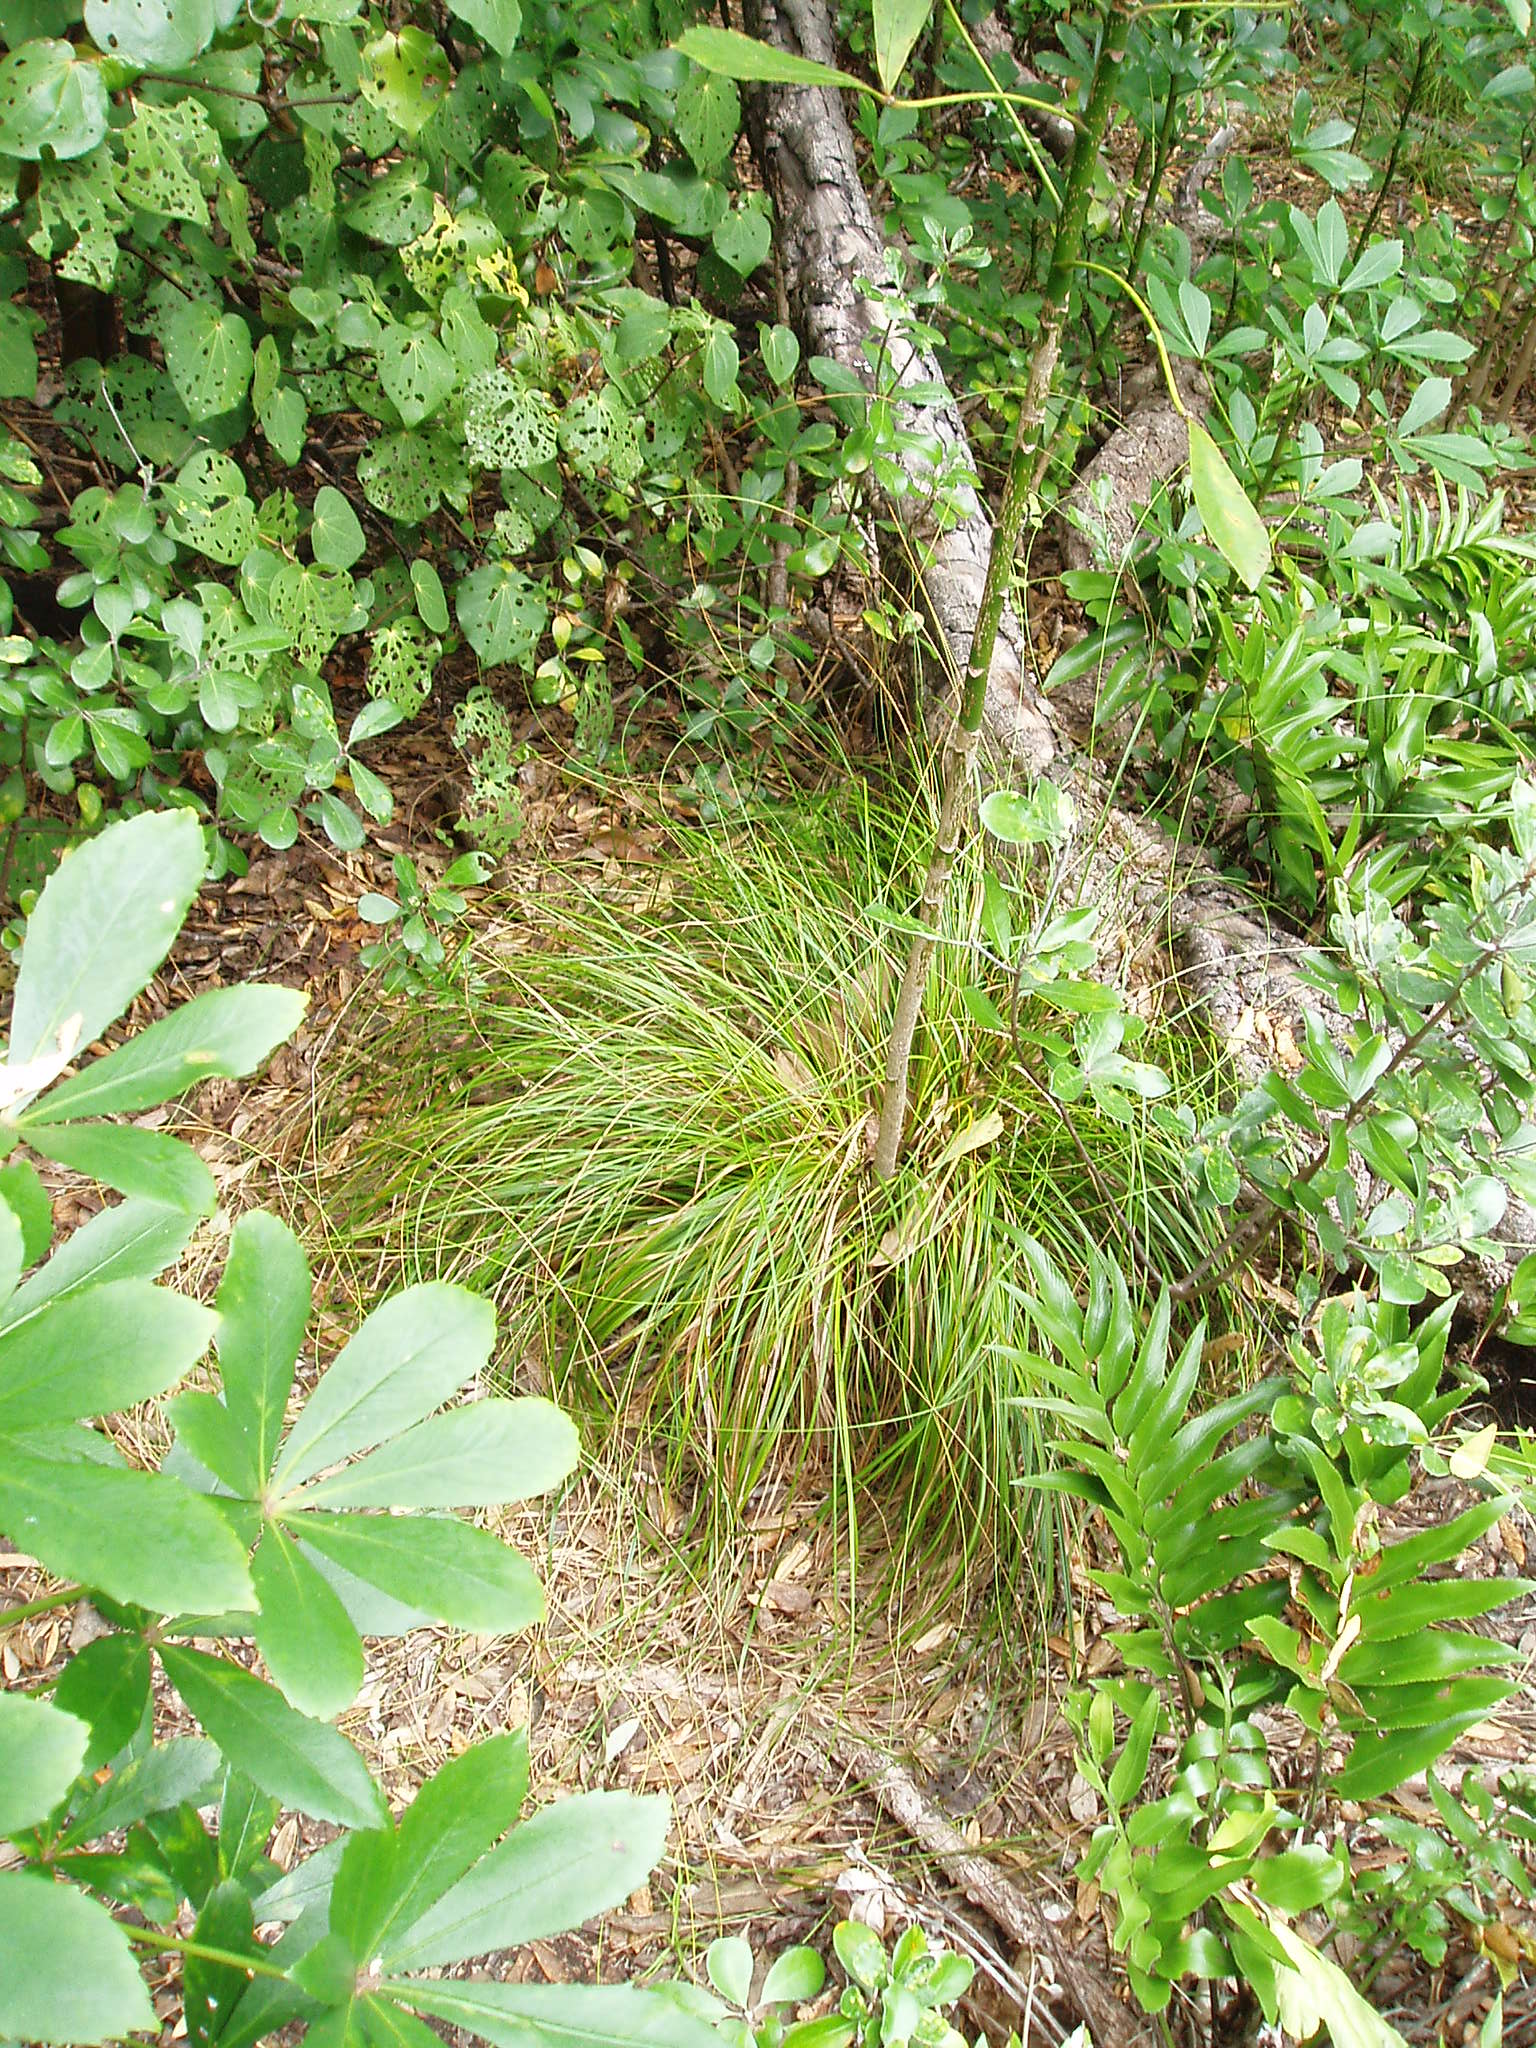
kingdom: Plantae
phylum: Tracheophyta
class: Liliopsida
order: Poales
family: Cyperaceae
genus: Carex
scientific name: Carex
